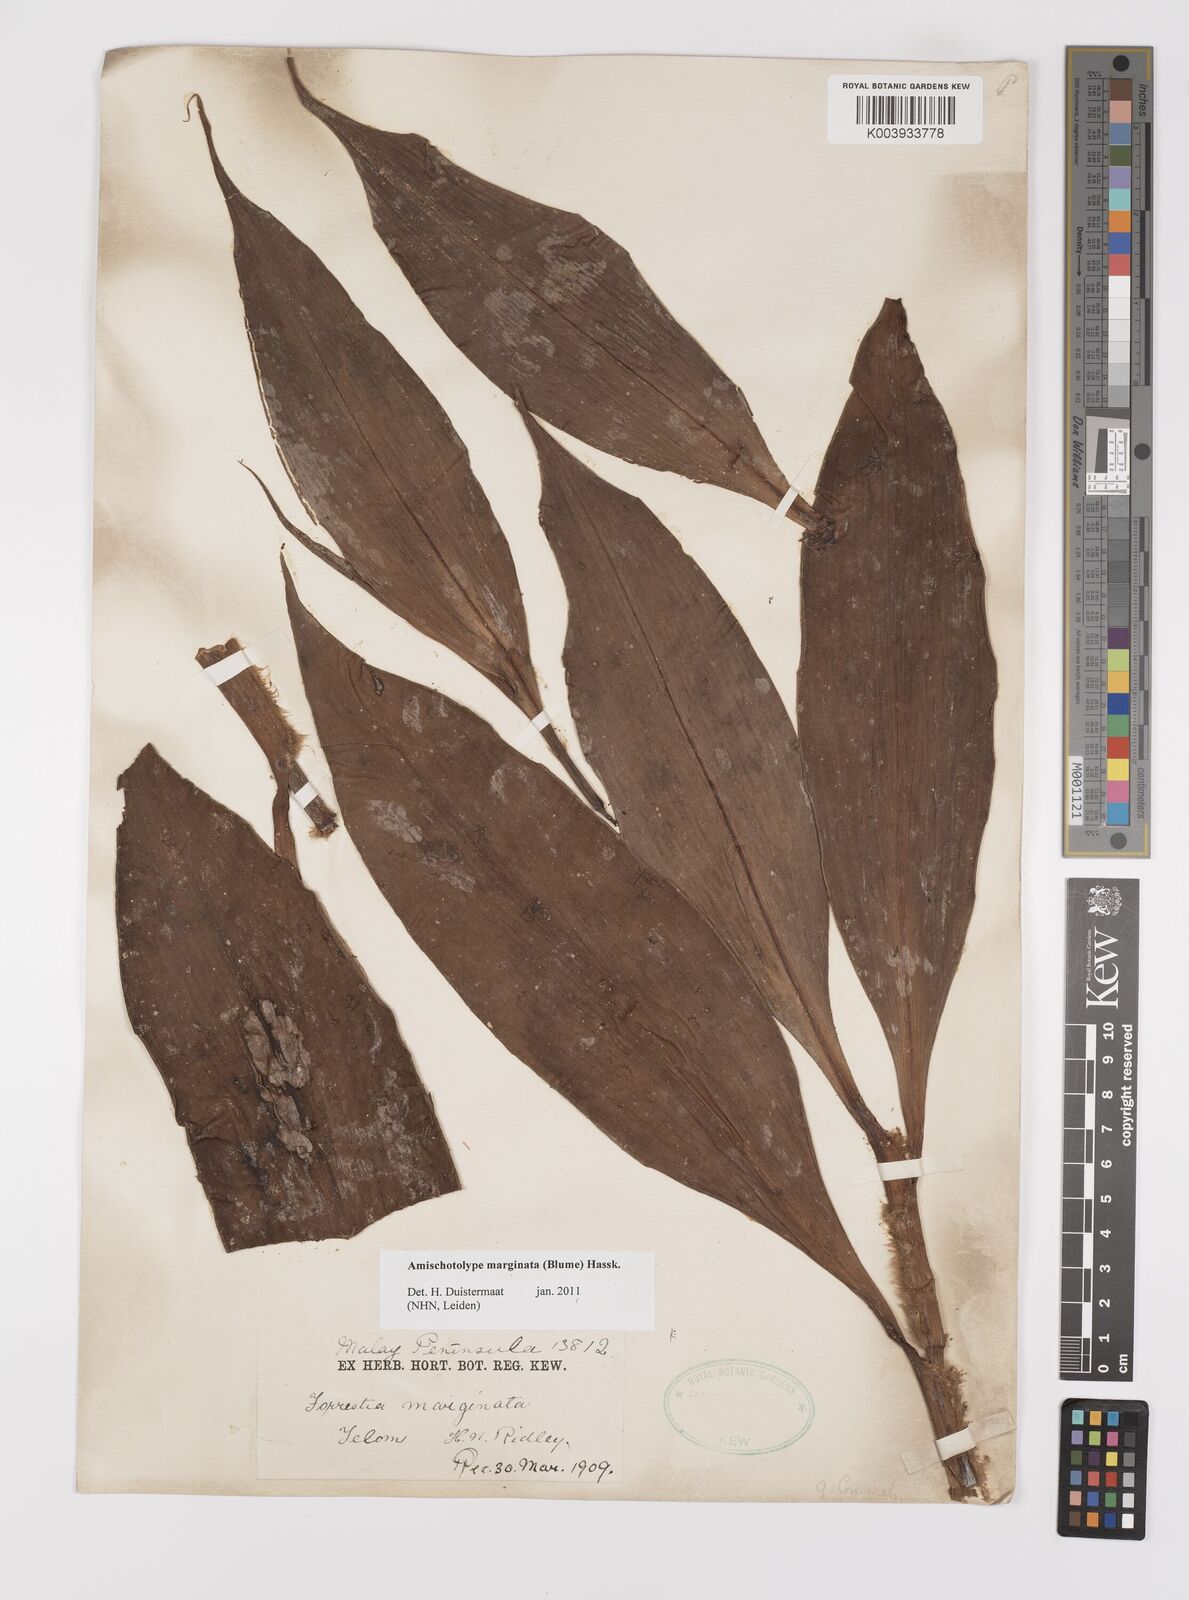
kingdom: Plantae
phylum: Tracheophyta
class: Liliopsida
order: Commelinales
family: Commelinaceae
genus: Amischotolype
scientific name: Amischotolype marginata
